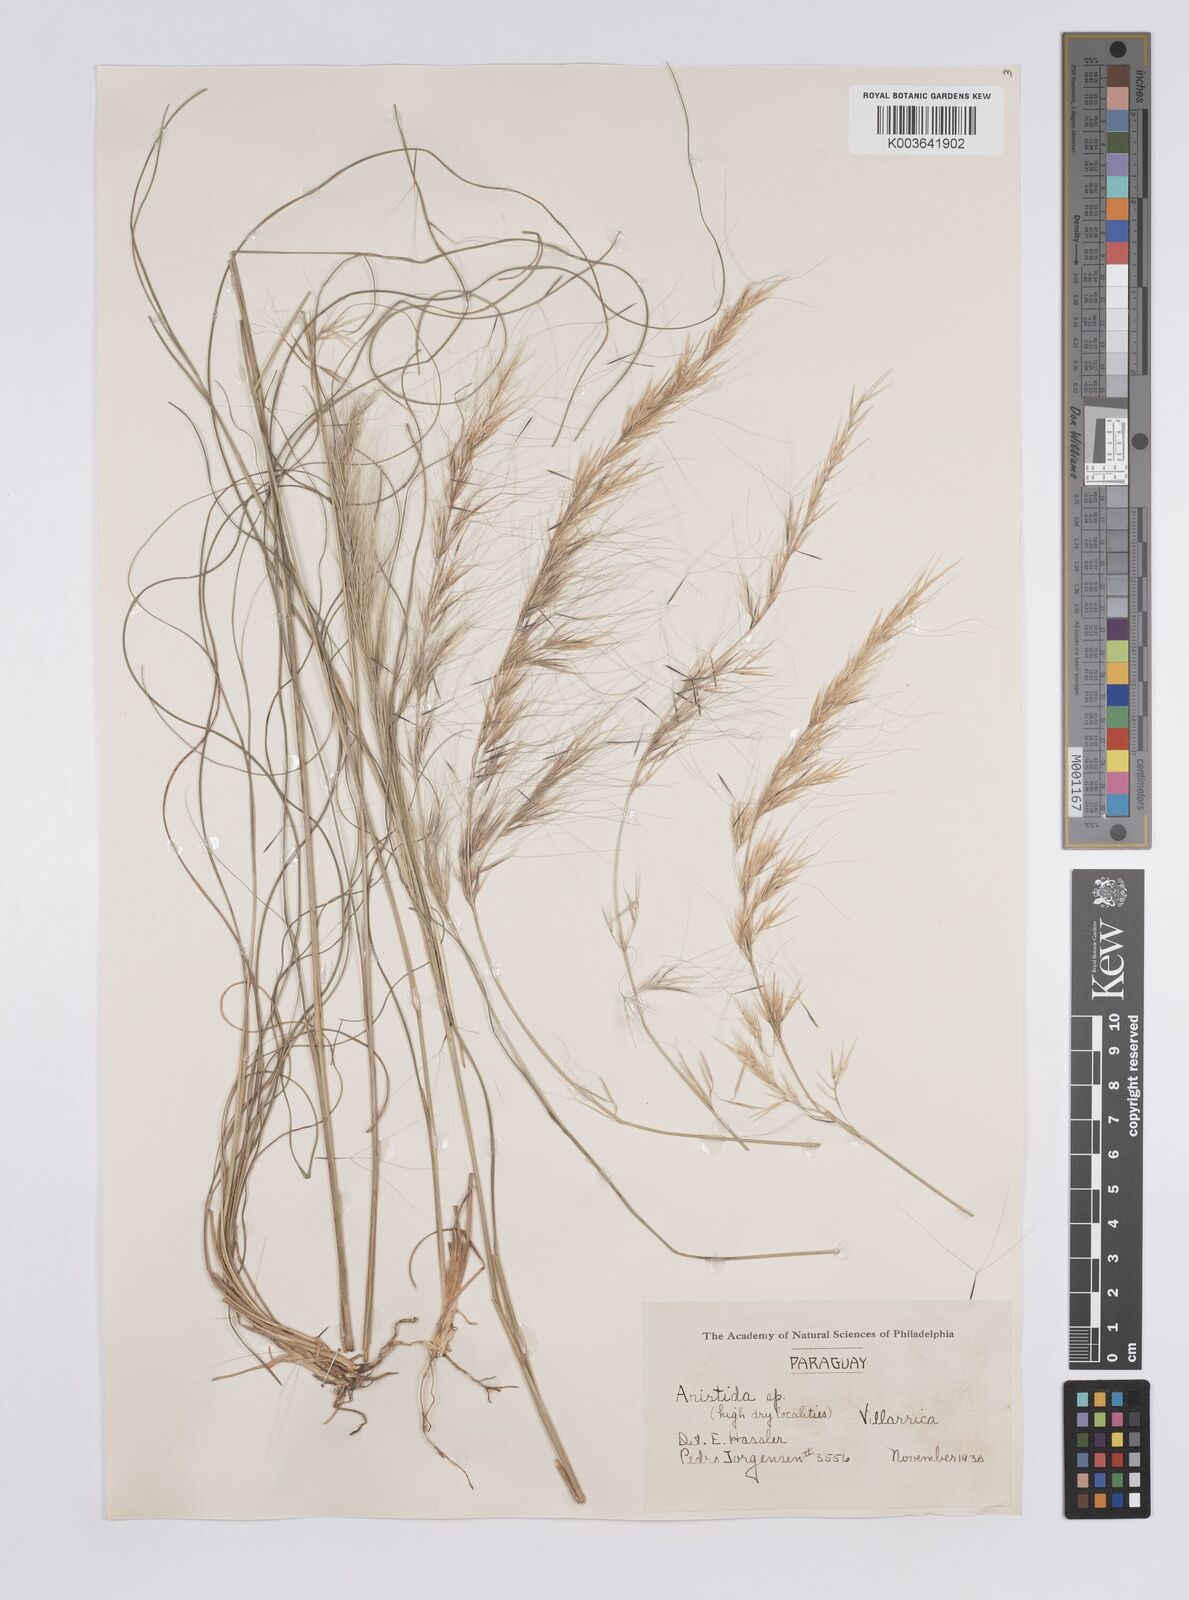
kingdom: Plantae
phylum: Tracheophyta
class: Liliopsida
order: Poales
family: Poaceae
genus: Aristida
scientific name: Aristida
